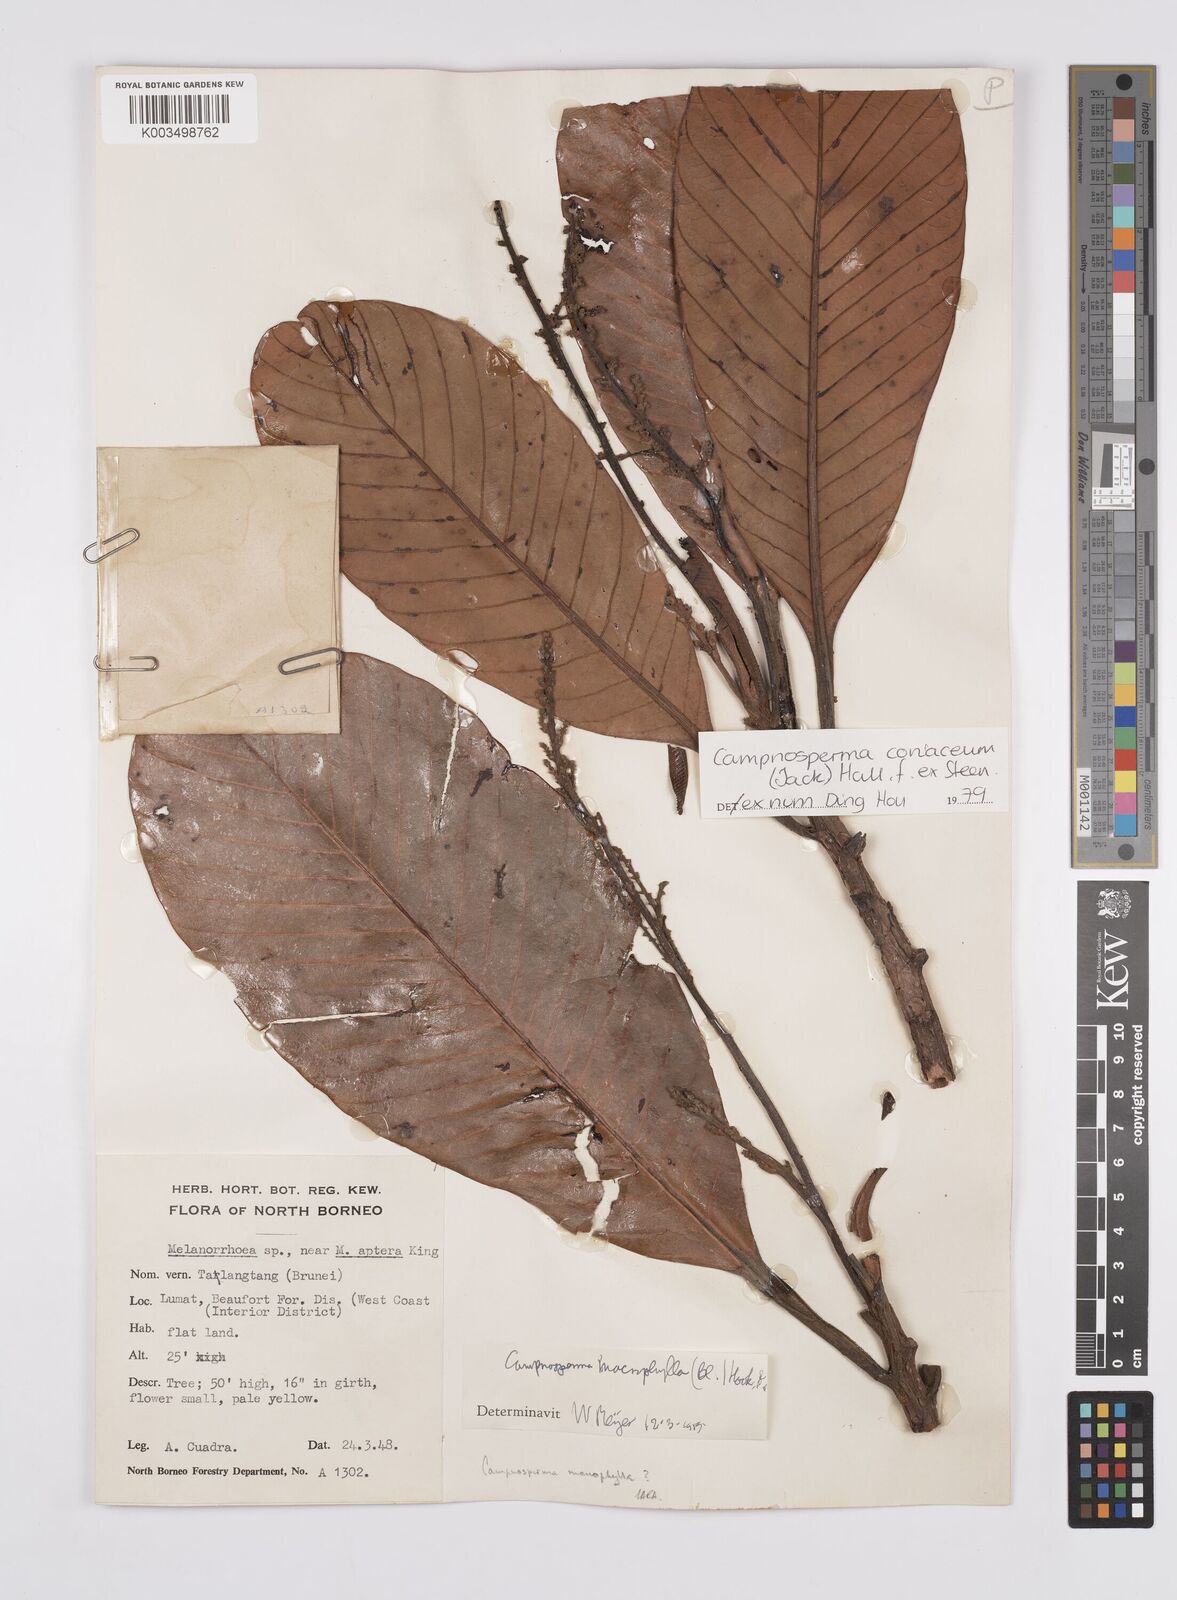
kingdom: Plantae
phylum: Tracheophyta
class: Magnoliopsida
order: Sapindales
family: Anacardiaceae
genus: Campnosperma
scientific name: Campnosperma coriaceum
